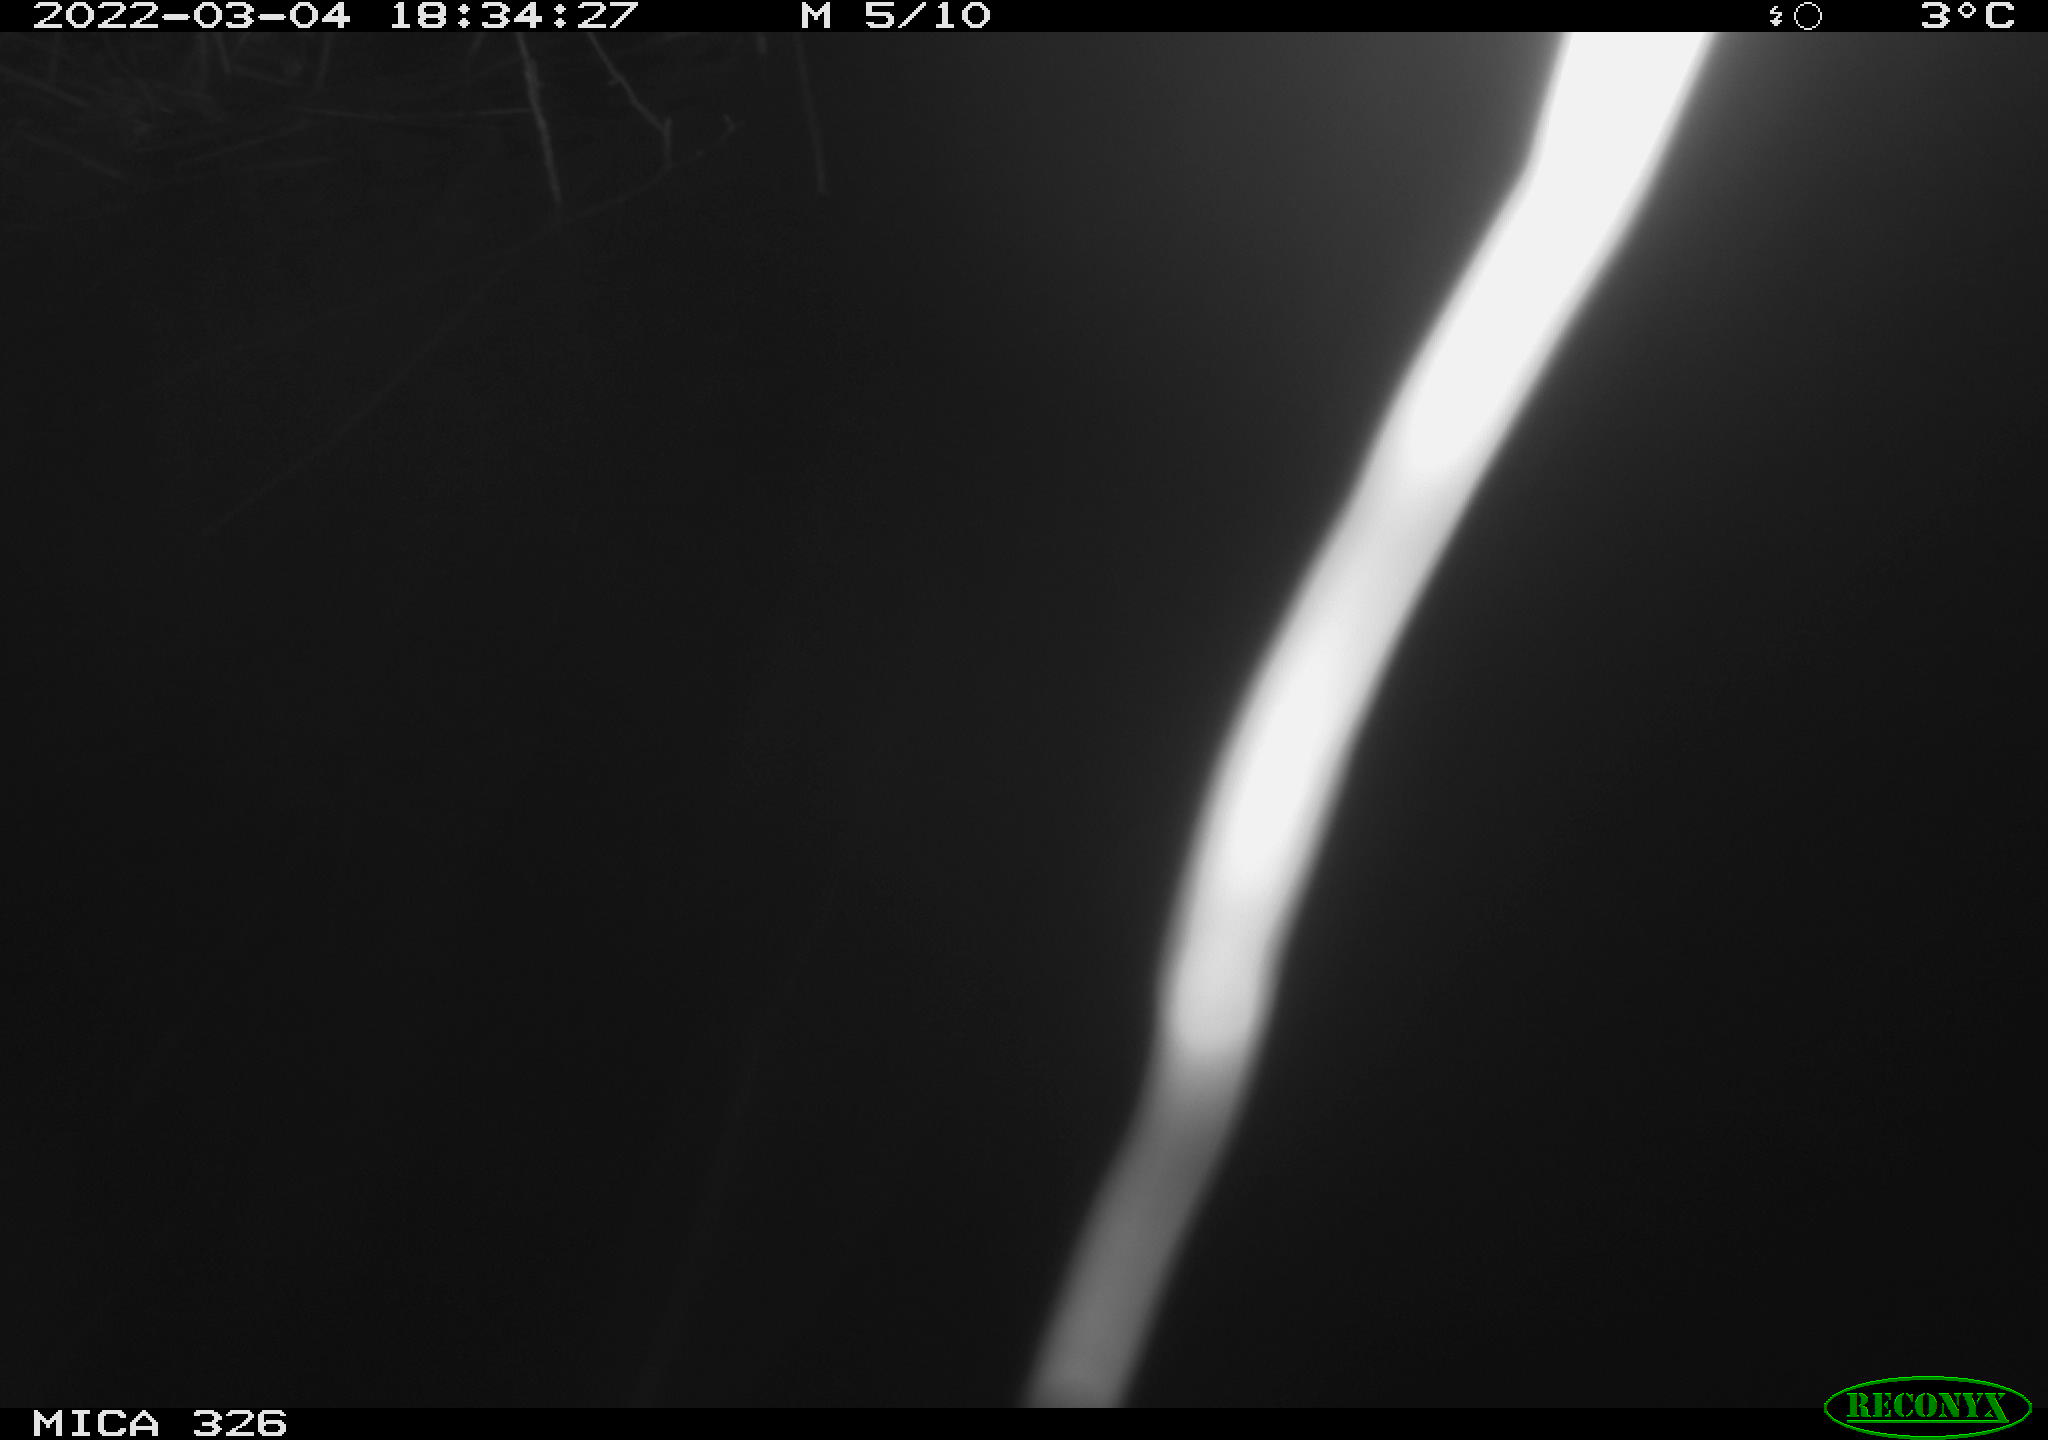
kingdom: Animalia
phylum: Chordata
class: Mammalia
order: Rodentia
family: Cricetidae
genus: Ondatra
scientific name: Ondatra zibethicus
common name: Muskrat
